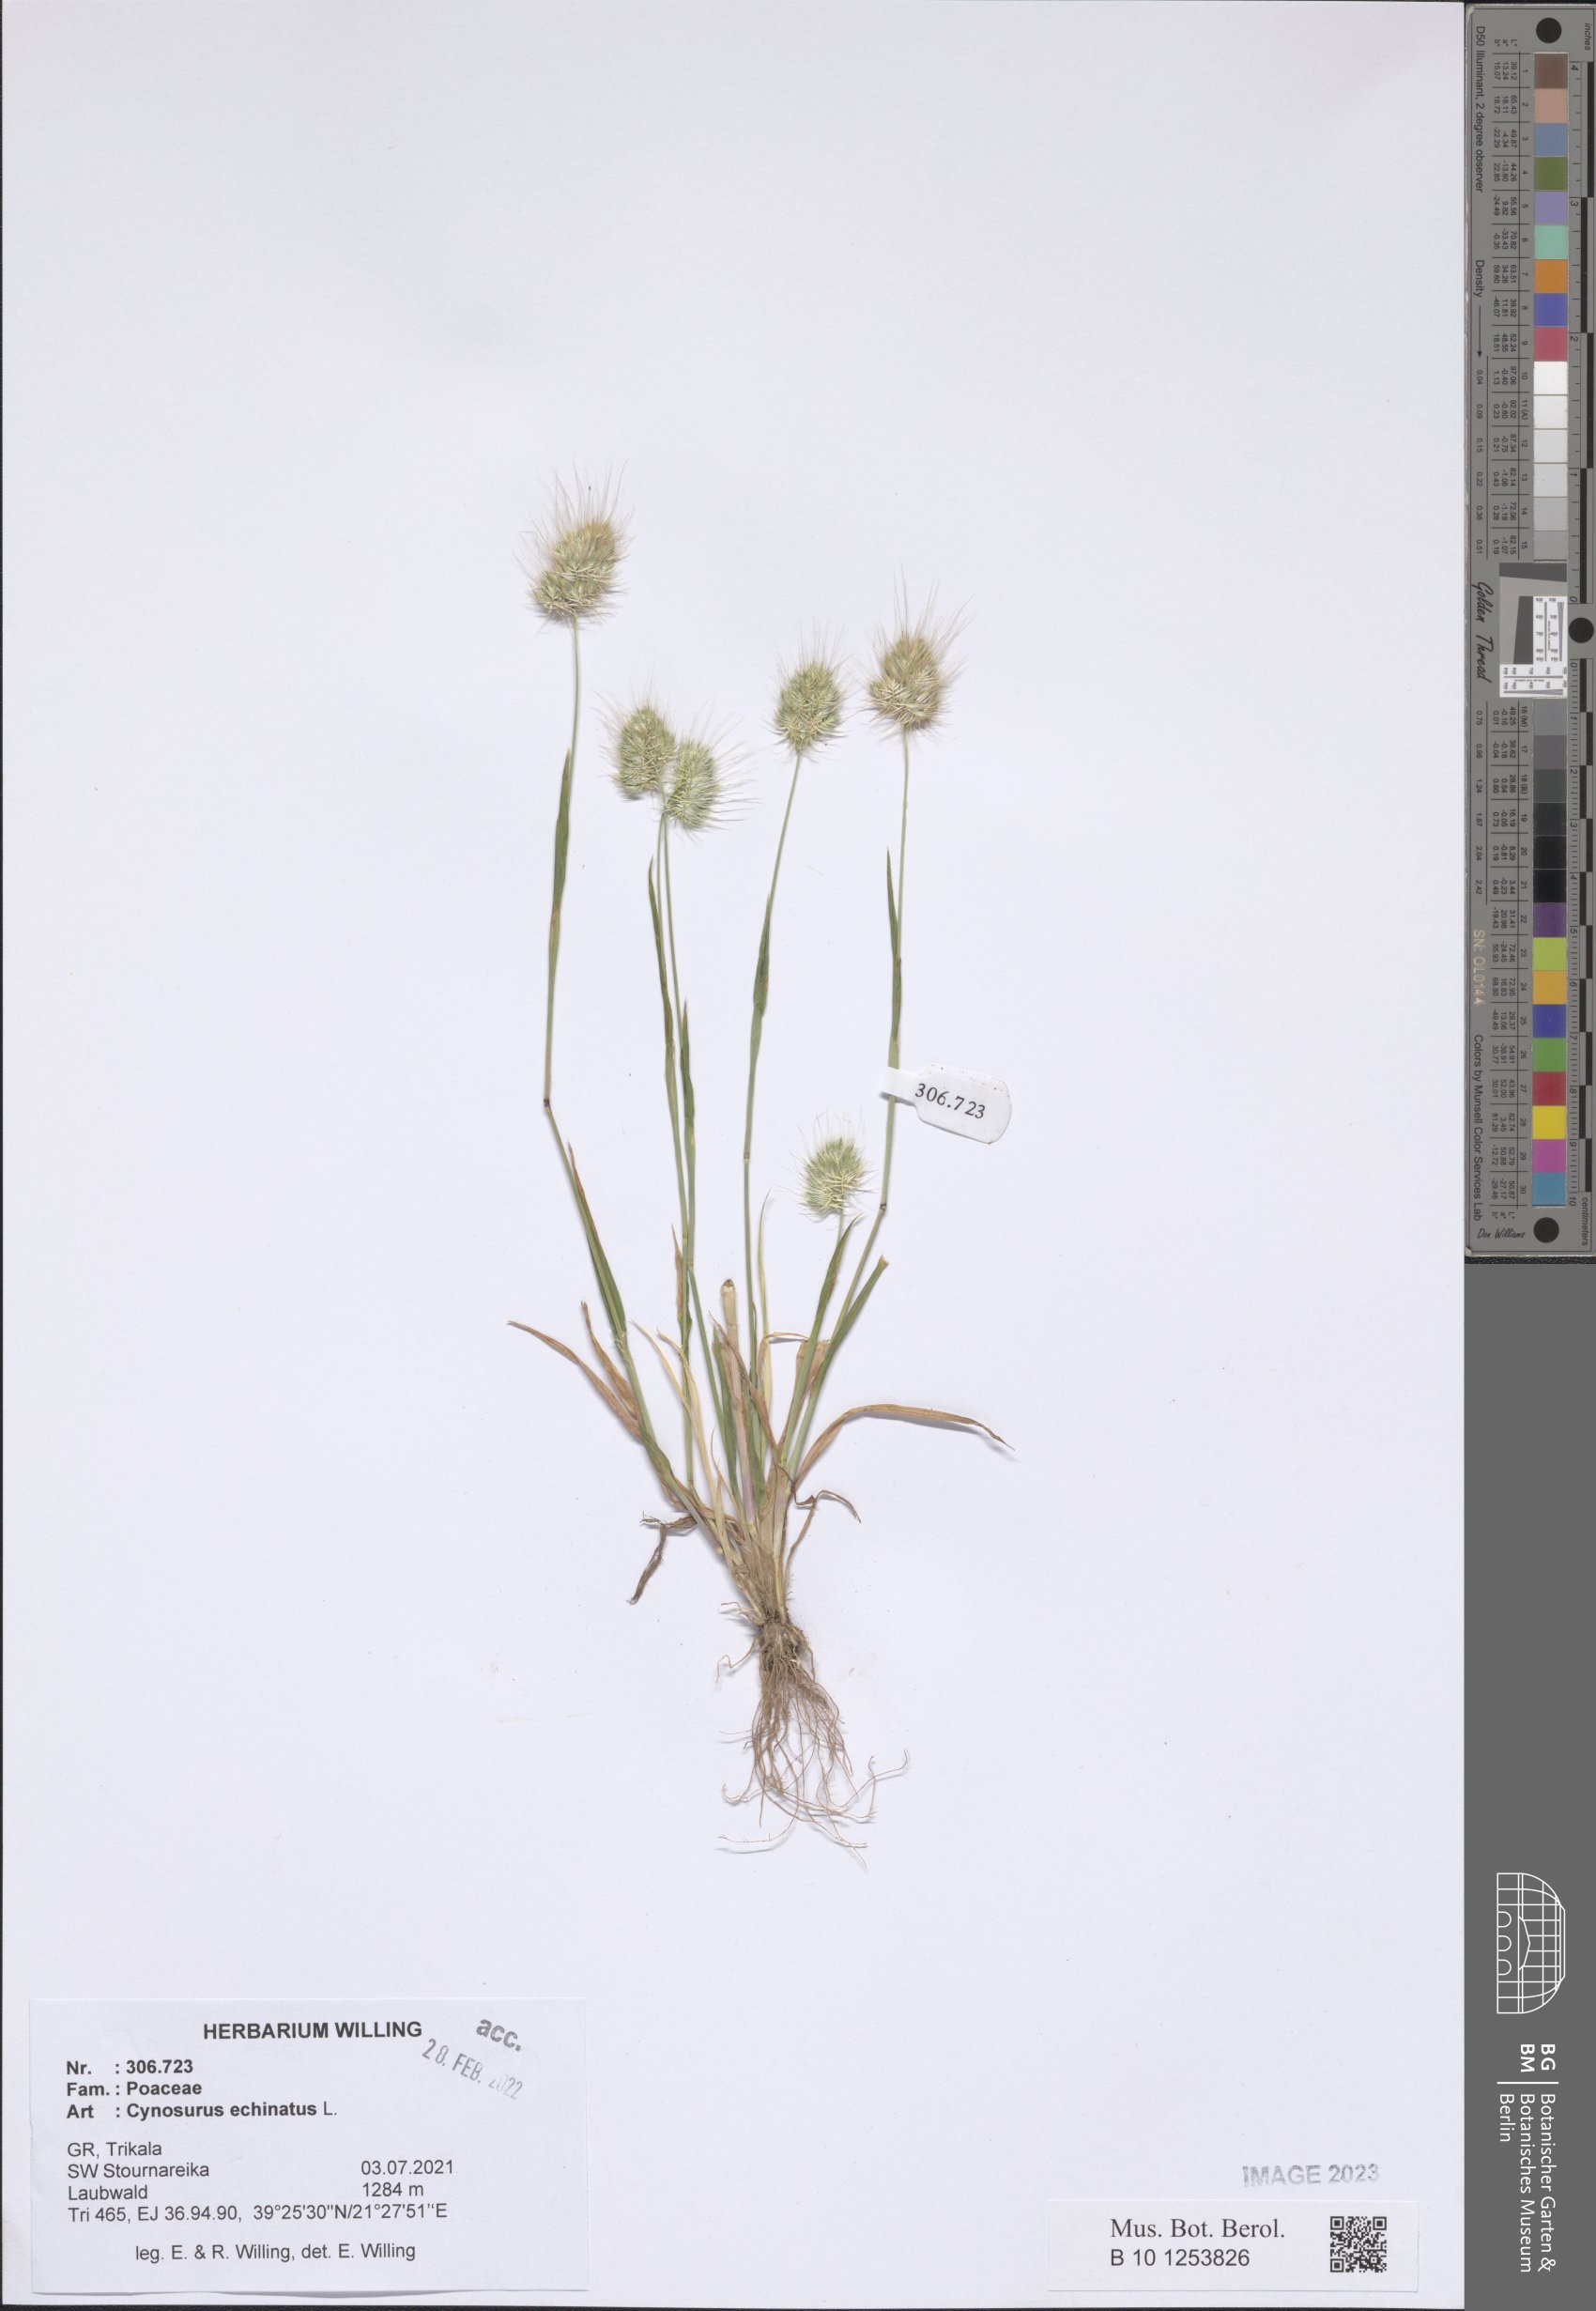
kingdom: Plantae
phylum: Tracheophyta
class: Liliopsida
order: Poales
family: Poaceae
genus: Cynosurus
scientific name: Cynosurus echinatus
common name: Rough dog's-tail
